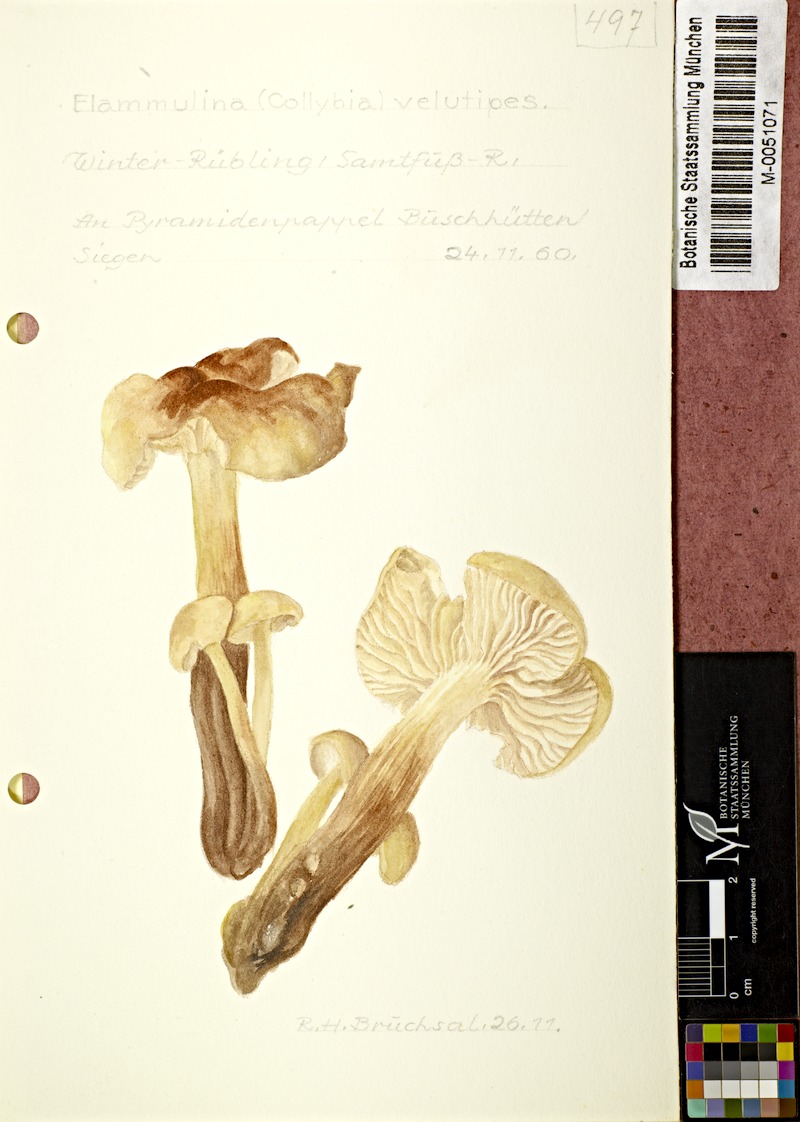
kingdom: Fungi
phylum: Basidiomycota
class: Agaricomycetes
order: Agaricales
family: Physalacriaceae
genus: Flammulina
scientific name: Flammulina velutipes
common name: Velvet shank
